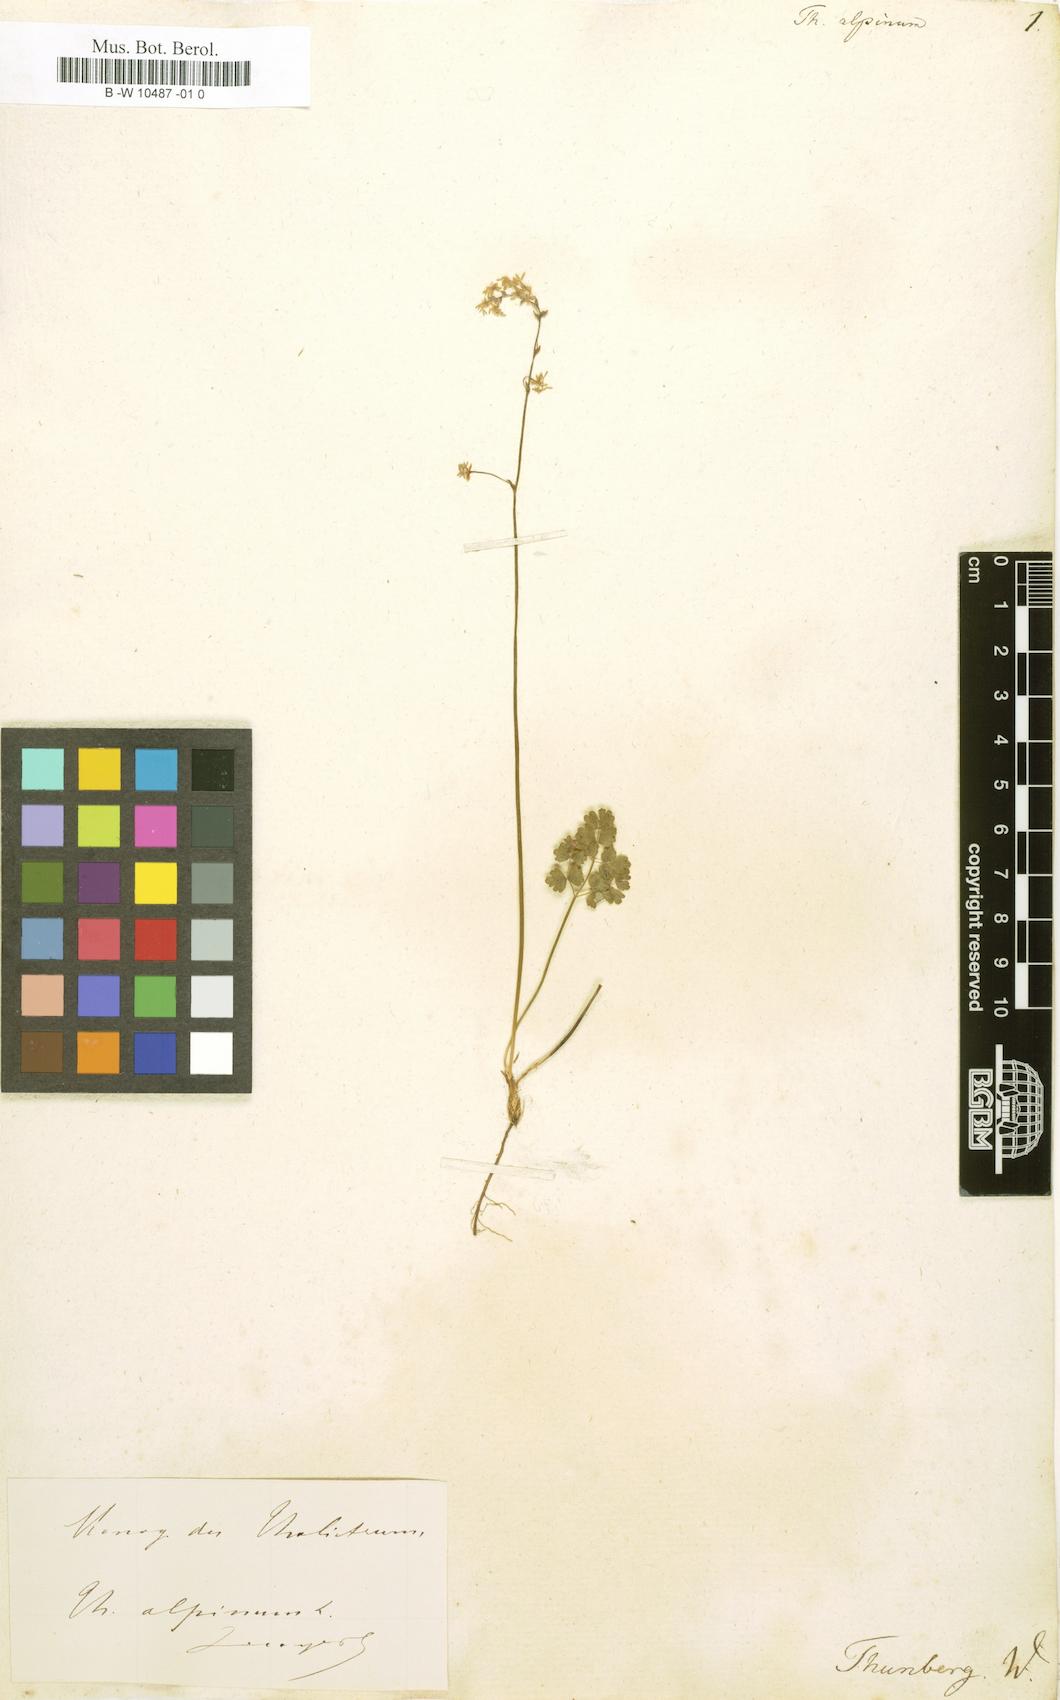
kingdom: Plantae
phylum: Tracheophyta
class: Magnoliopsida
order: Ranunculales
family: Ranunculaceae
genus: Thalictrum
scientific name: Thalictrum alpinum
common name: Alpine meadow-rue
